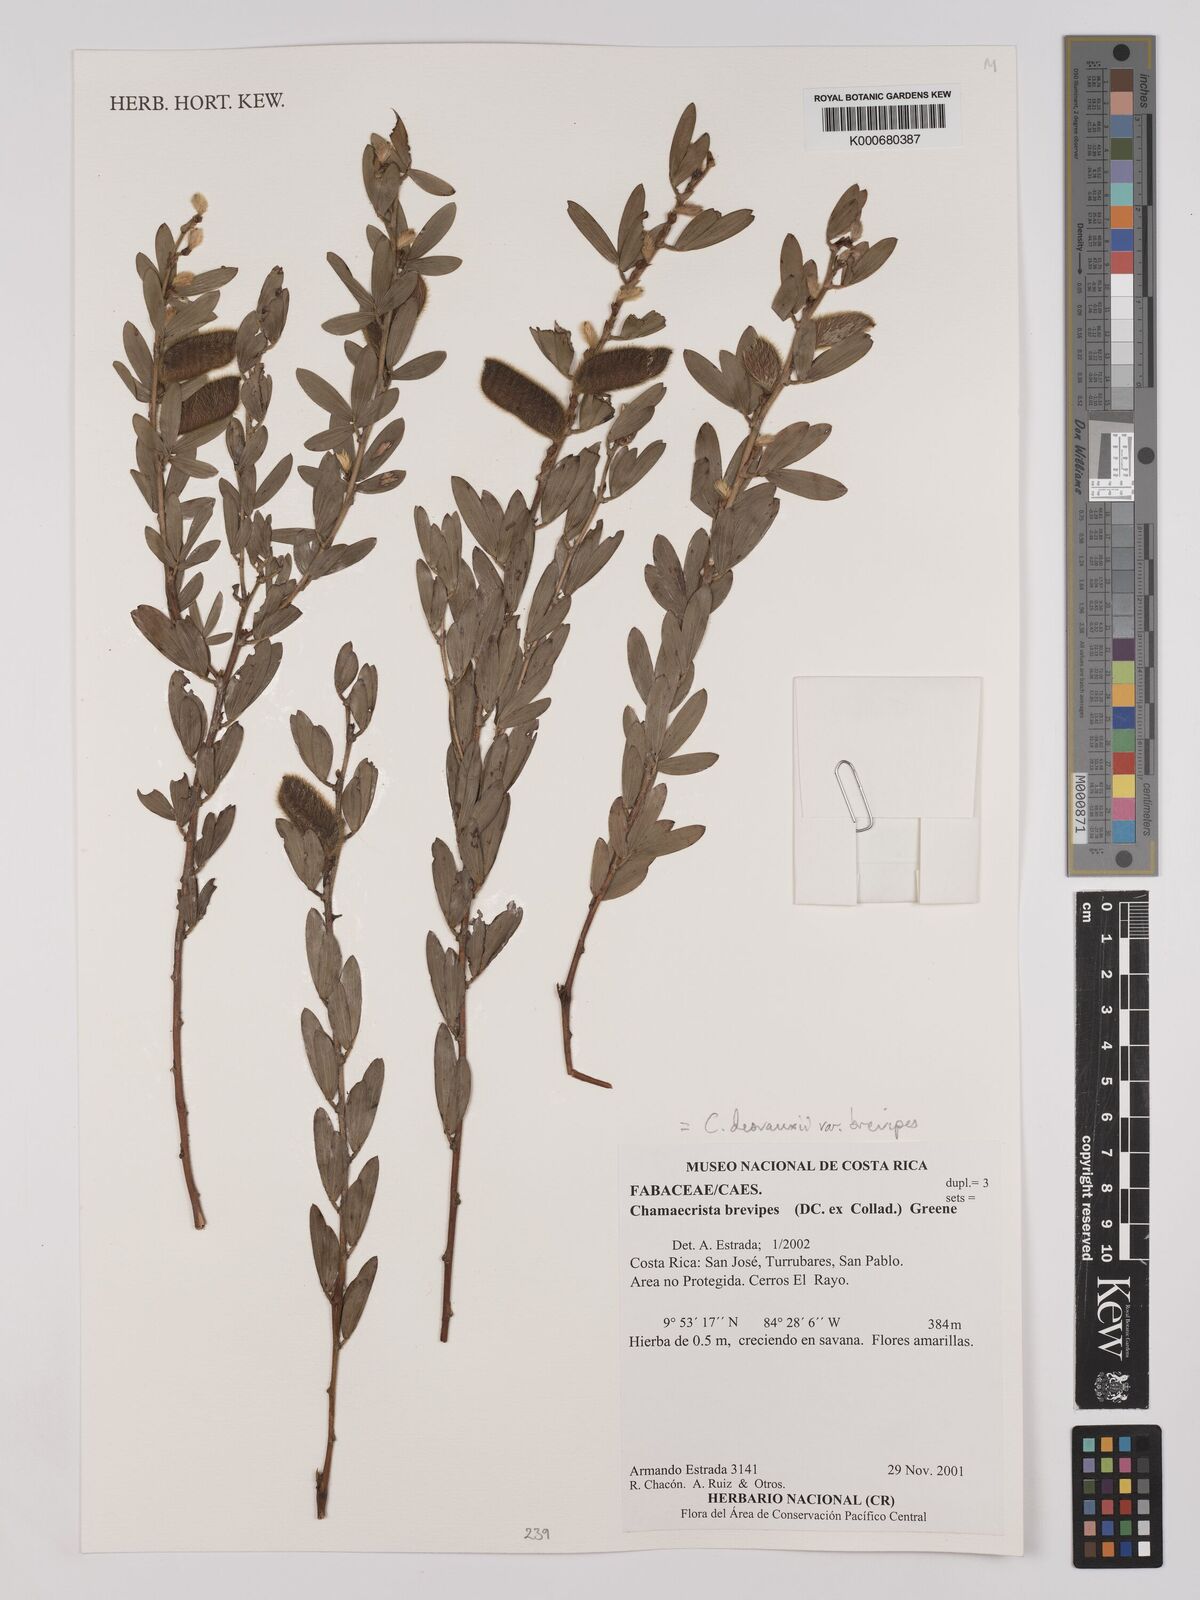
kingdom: Plantae
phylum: Tracheophyta
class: Magnoliopsida
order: Fabales
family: Fabaceae
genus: Chamaecrista
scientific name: Chamaecrista desvauxii
